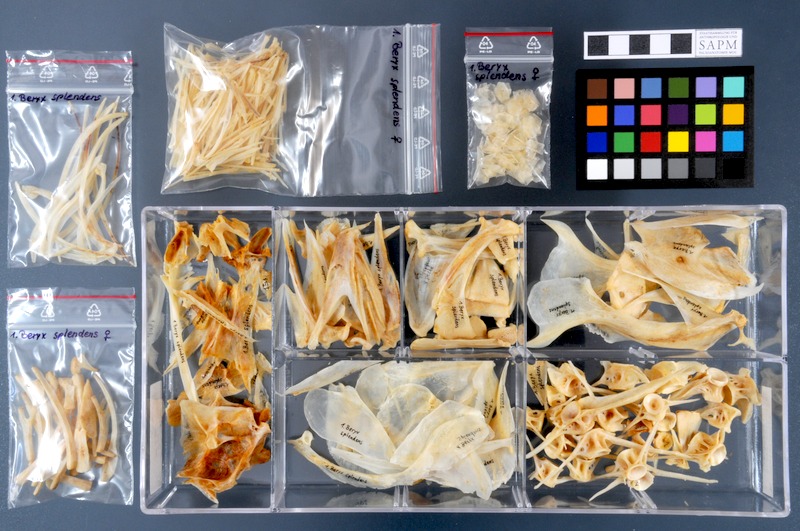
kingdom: Animalia
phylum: Chordata
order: Beryciformes
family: Berycidae
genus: Beryx
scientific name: Beryx splendens
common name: Lowe's beryx
